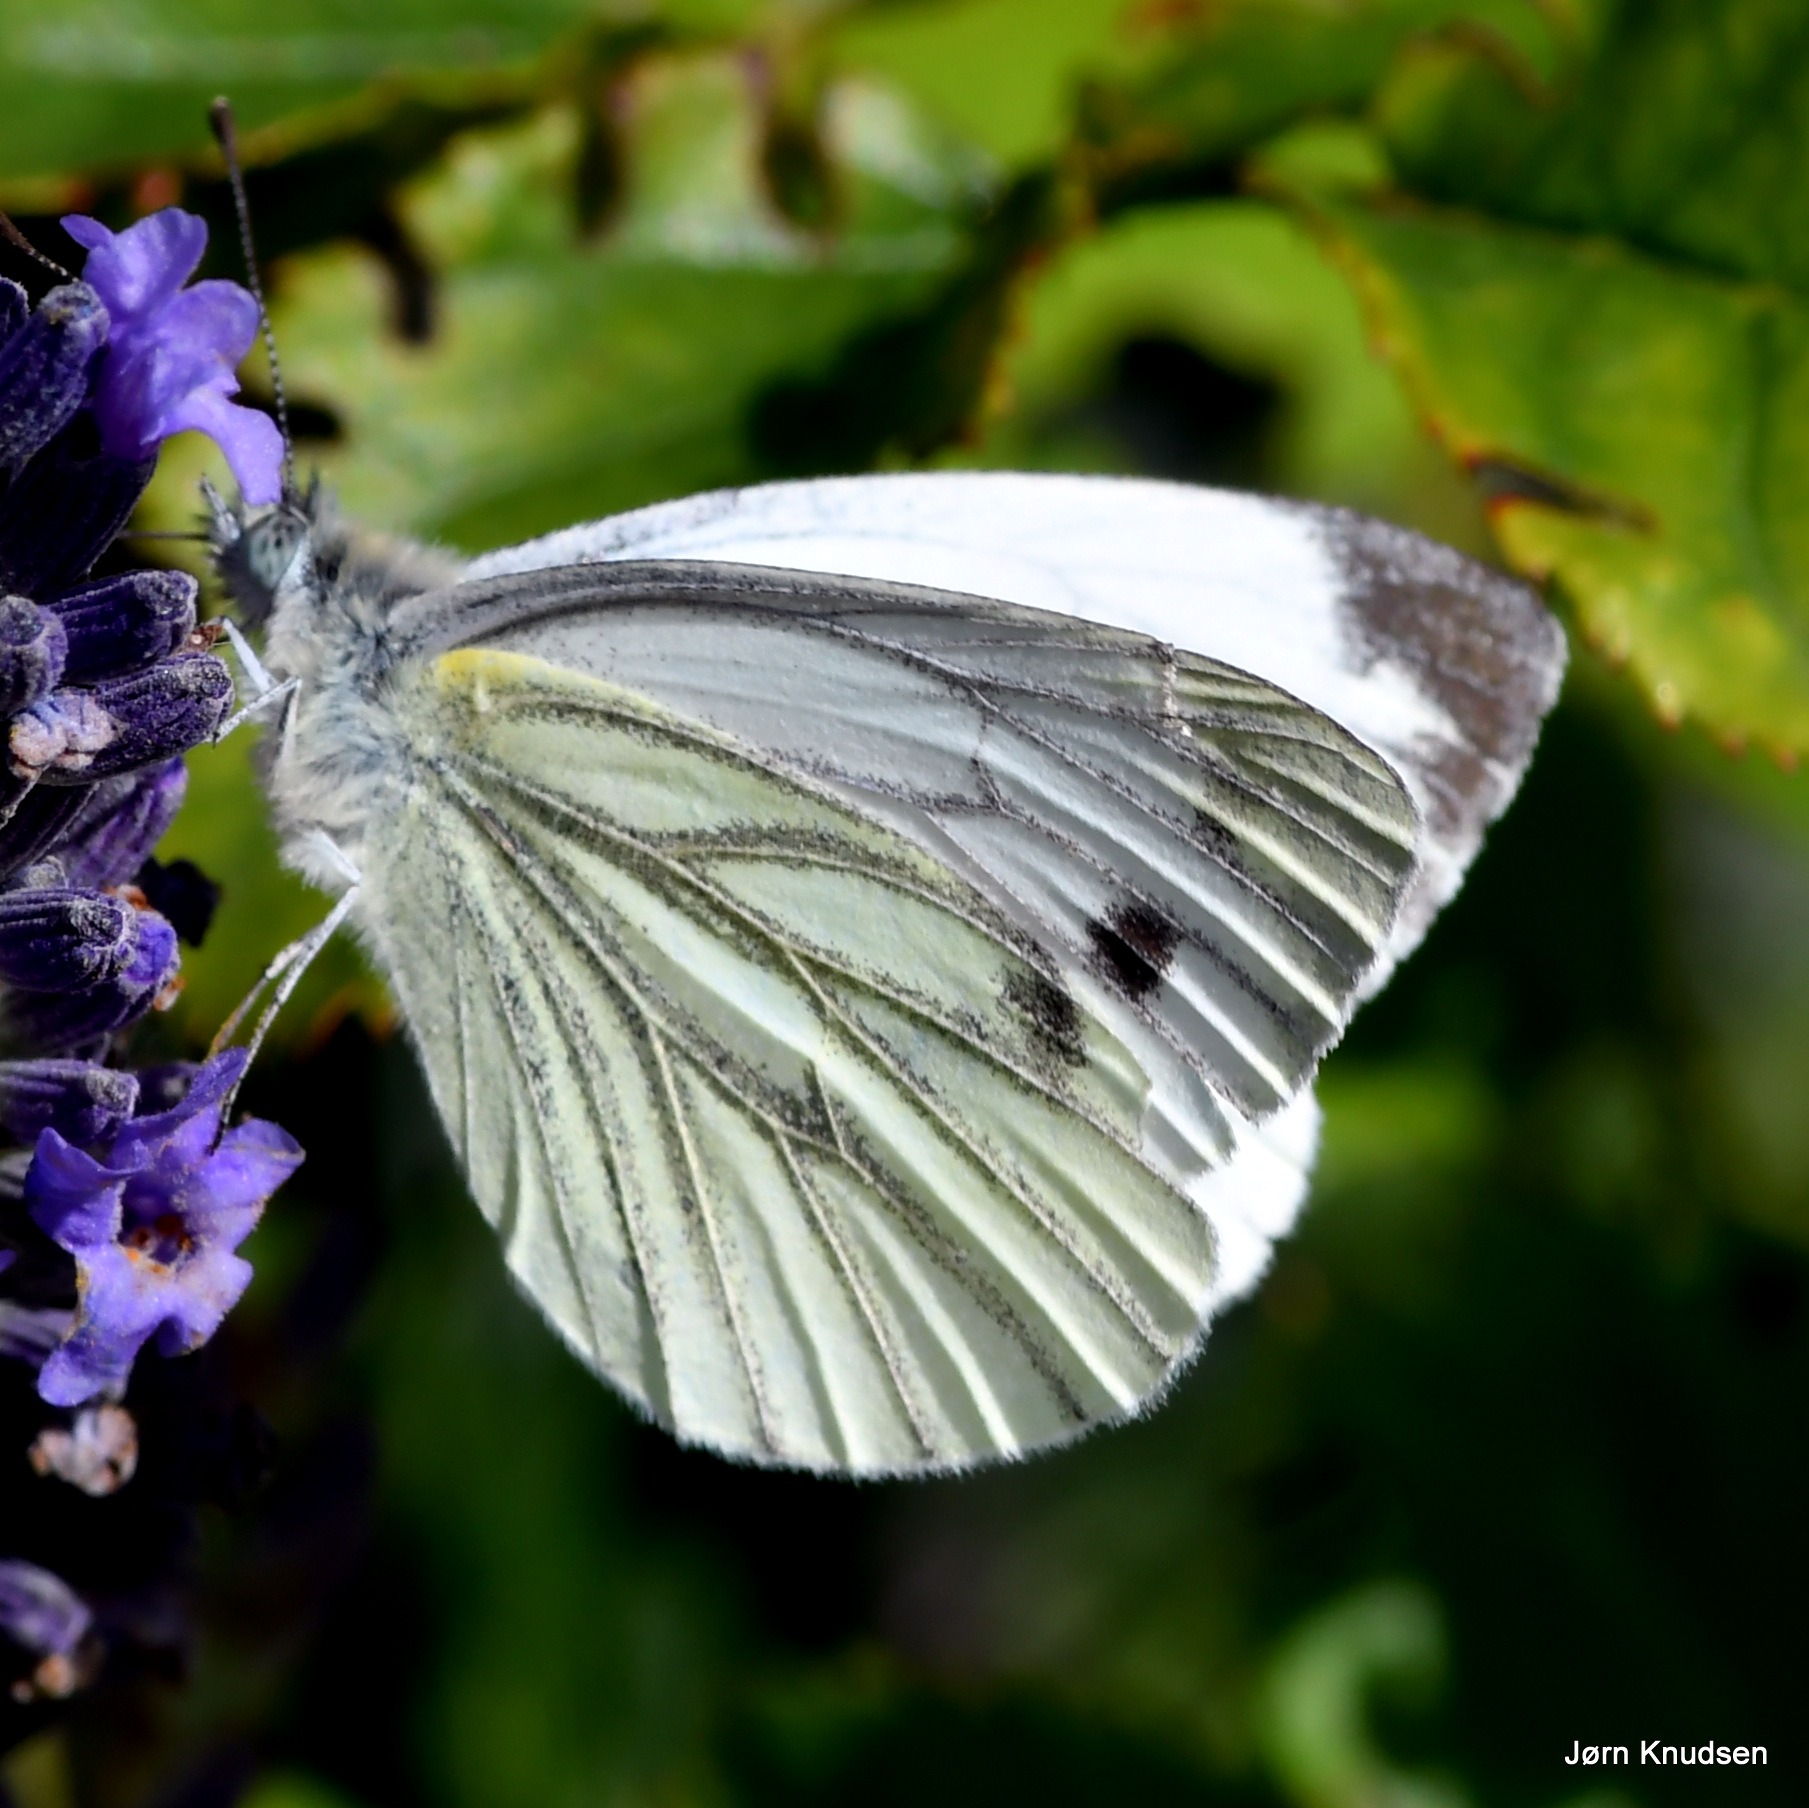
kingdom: Animalia
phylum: Arthropoda
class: Insecta
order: Lepidoptera
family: Pieridae
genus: Pieris
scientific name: Pieris napi
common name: Grønåret kålsommerfugl
